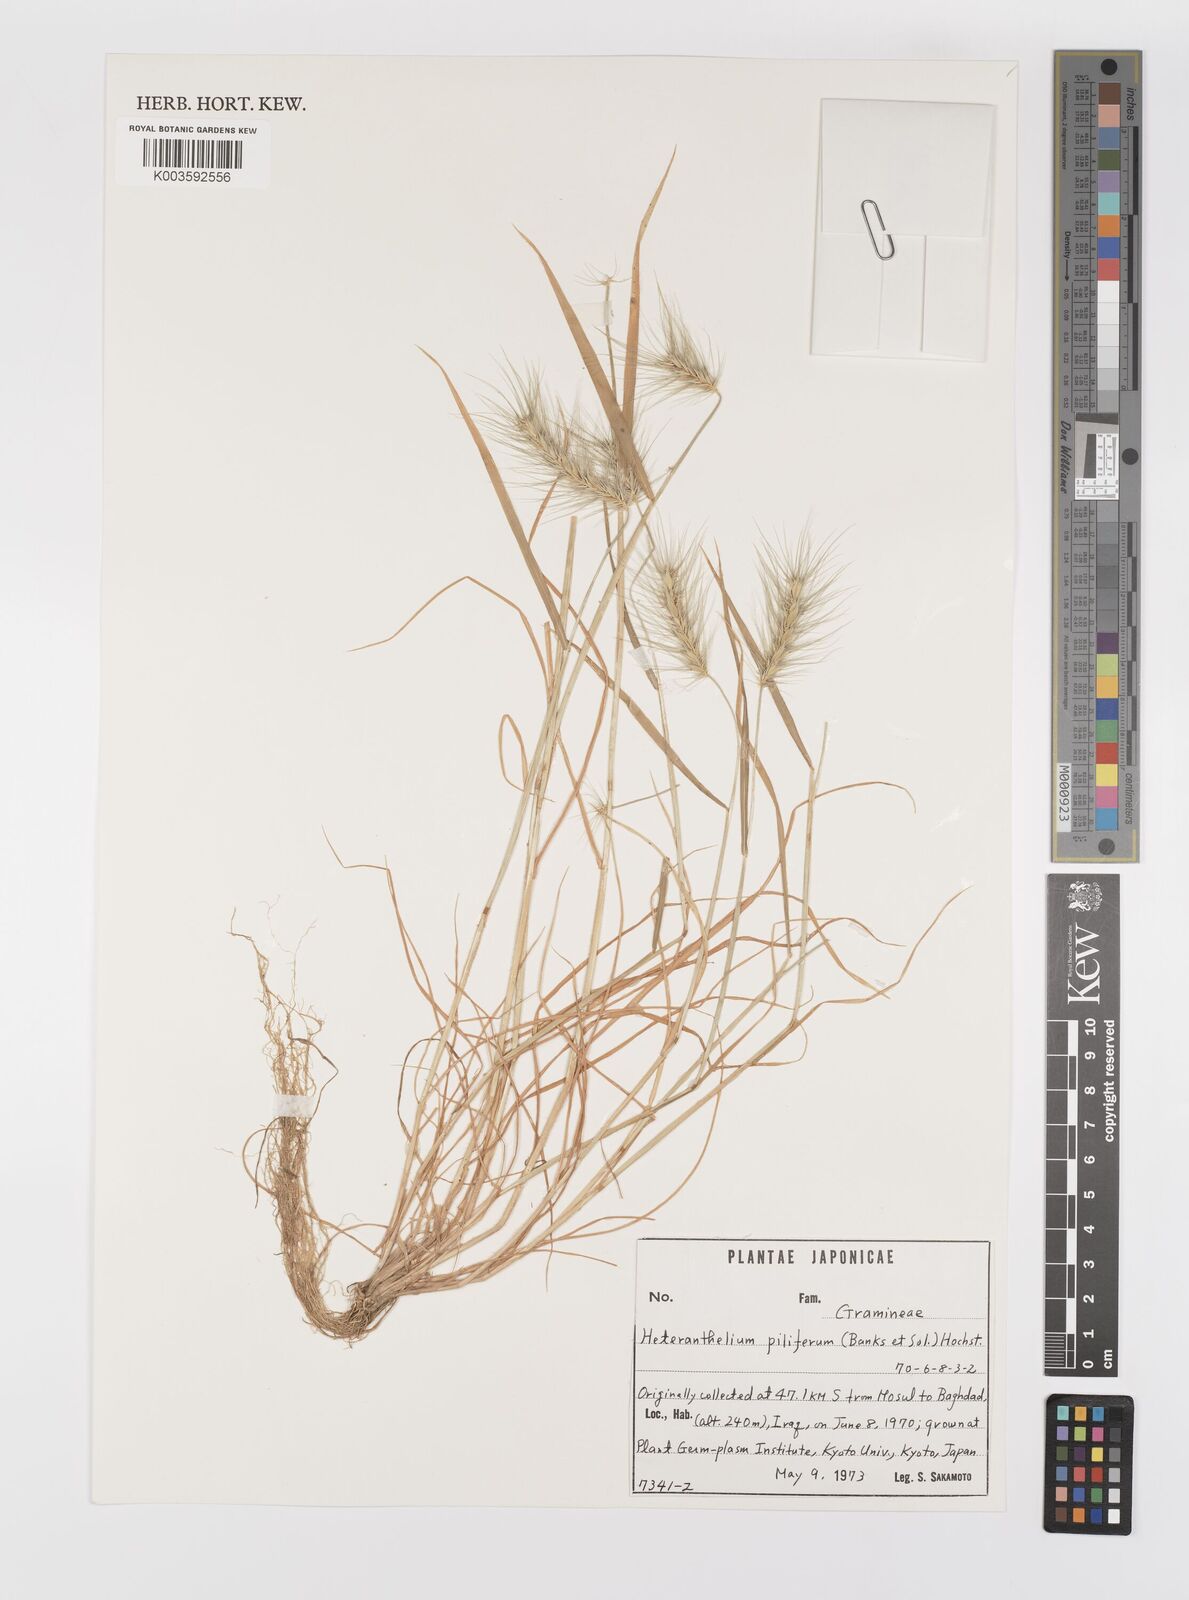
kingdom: Plantae
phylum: Tracheophyta
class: Liliopsida
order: Poales
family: Poaceae
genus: Heteranthelium
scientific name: Heteranthelium piliferum
